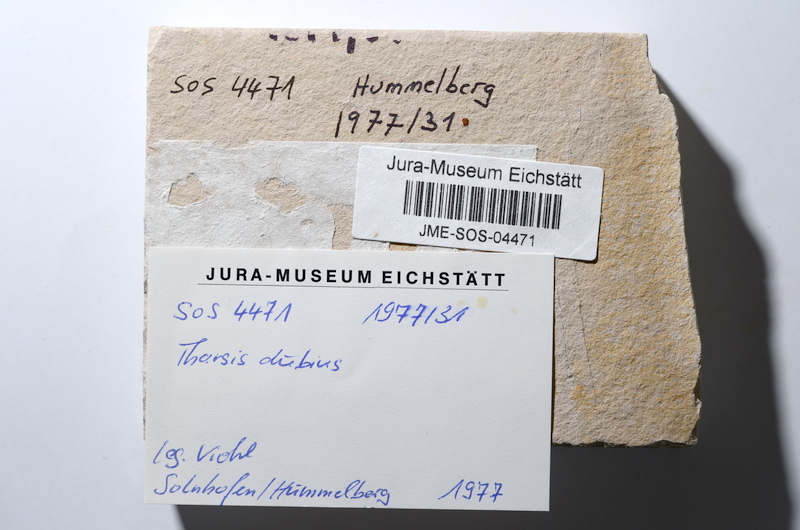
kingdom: Animalia
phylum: Chordata
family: Ascalaboidae
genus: Tharsis
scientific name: Tharsis dubius
